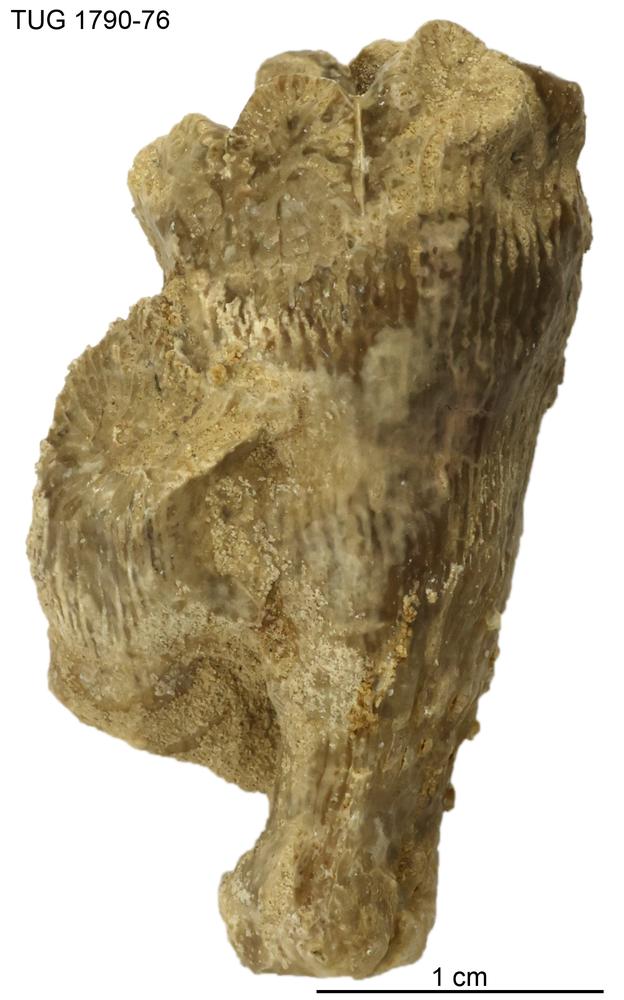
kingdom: Animalia
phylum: Cnidaria
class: Anthozoa
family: Streptelasmatidae
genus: Densiphyllum
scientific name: Densiphyllum
